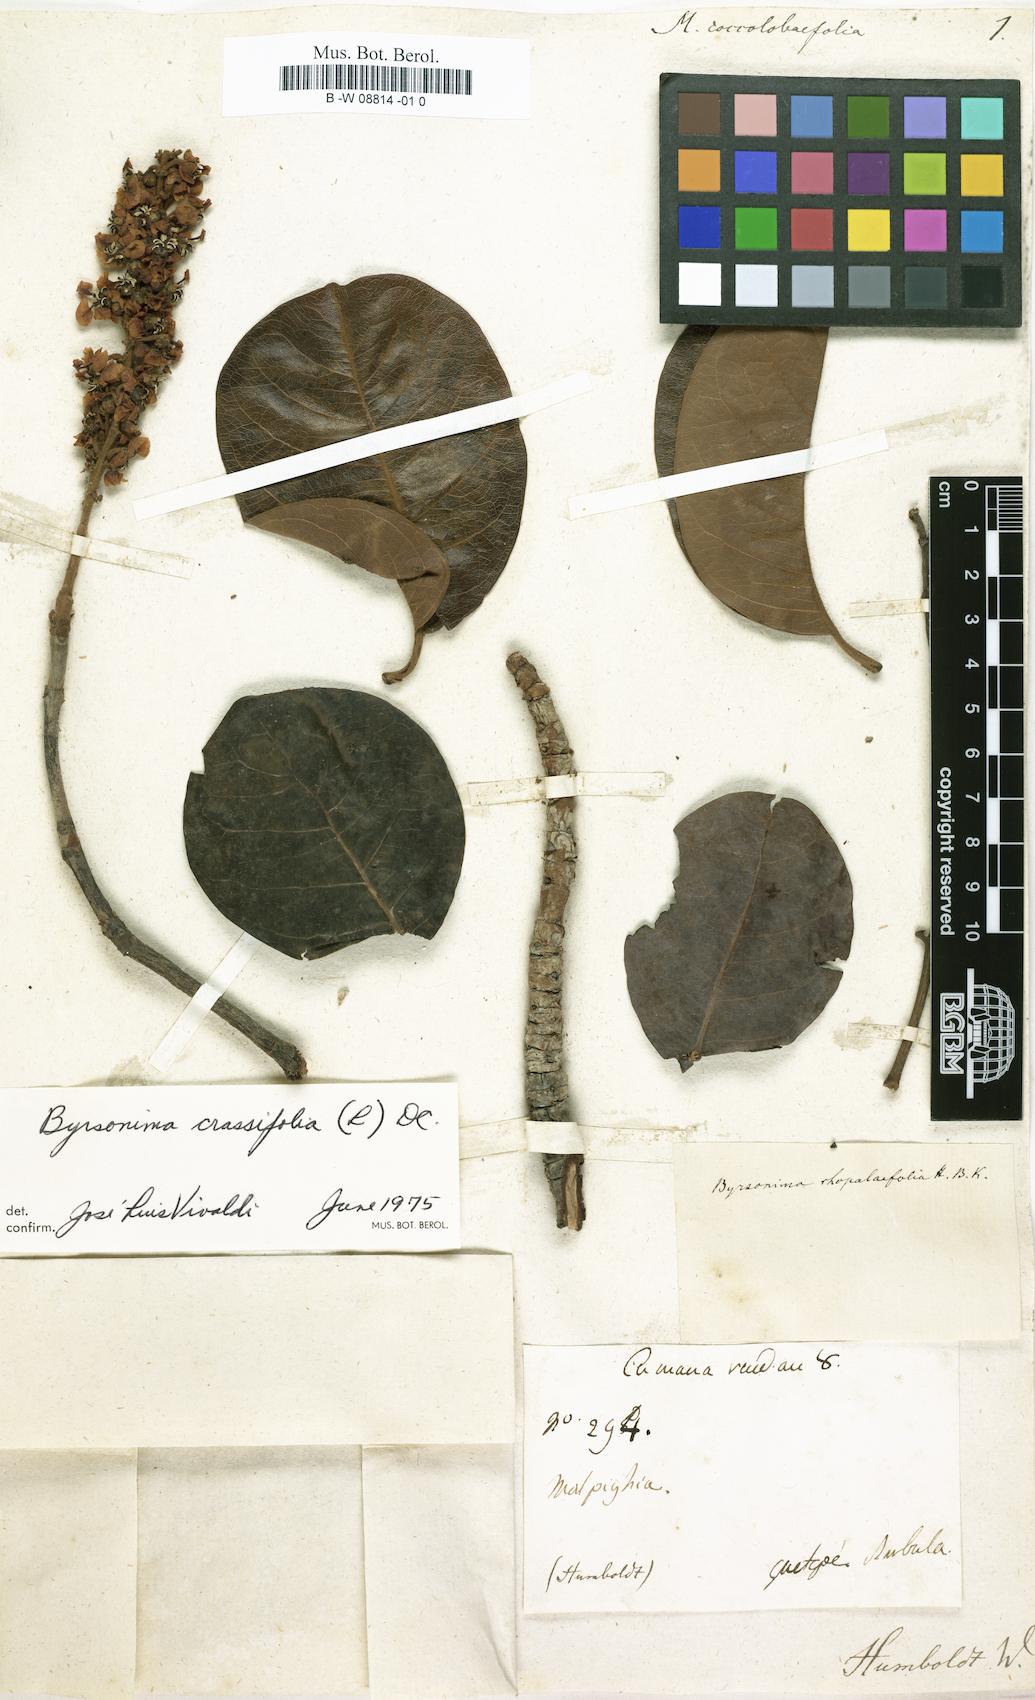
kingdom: Plantae
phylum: Tracheophyta
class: Magnoliopsida
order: Malpighiales
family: Malpighiaceae
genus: Byrsonima
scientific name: Byrsonima coccolobifolia
